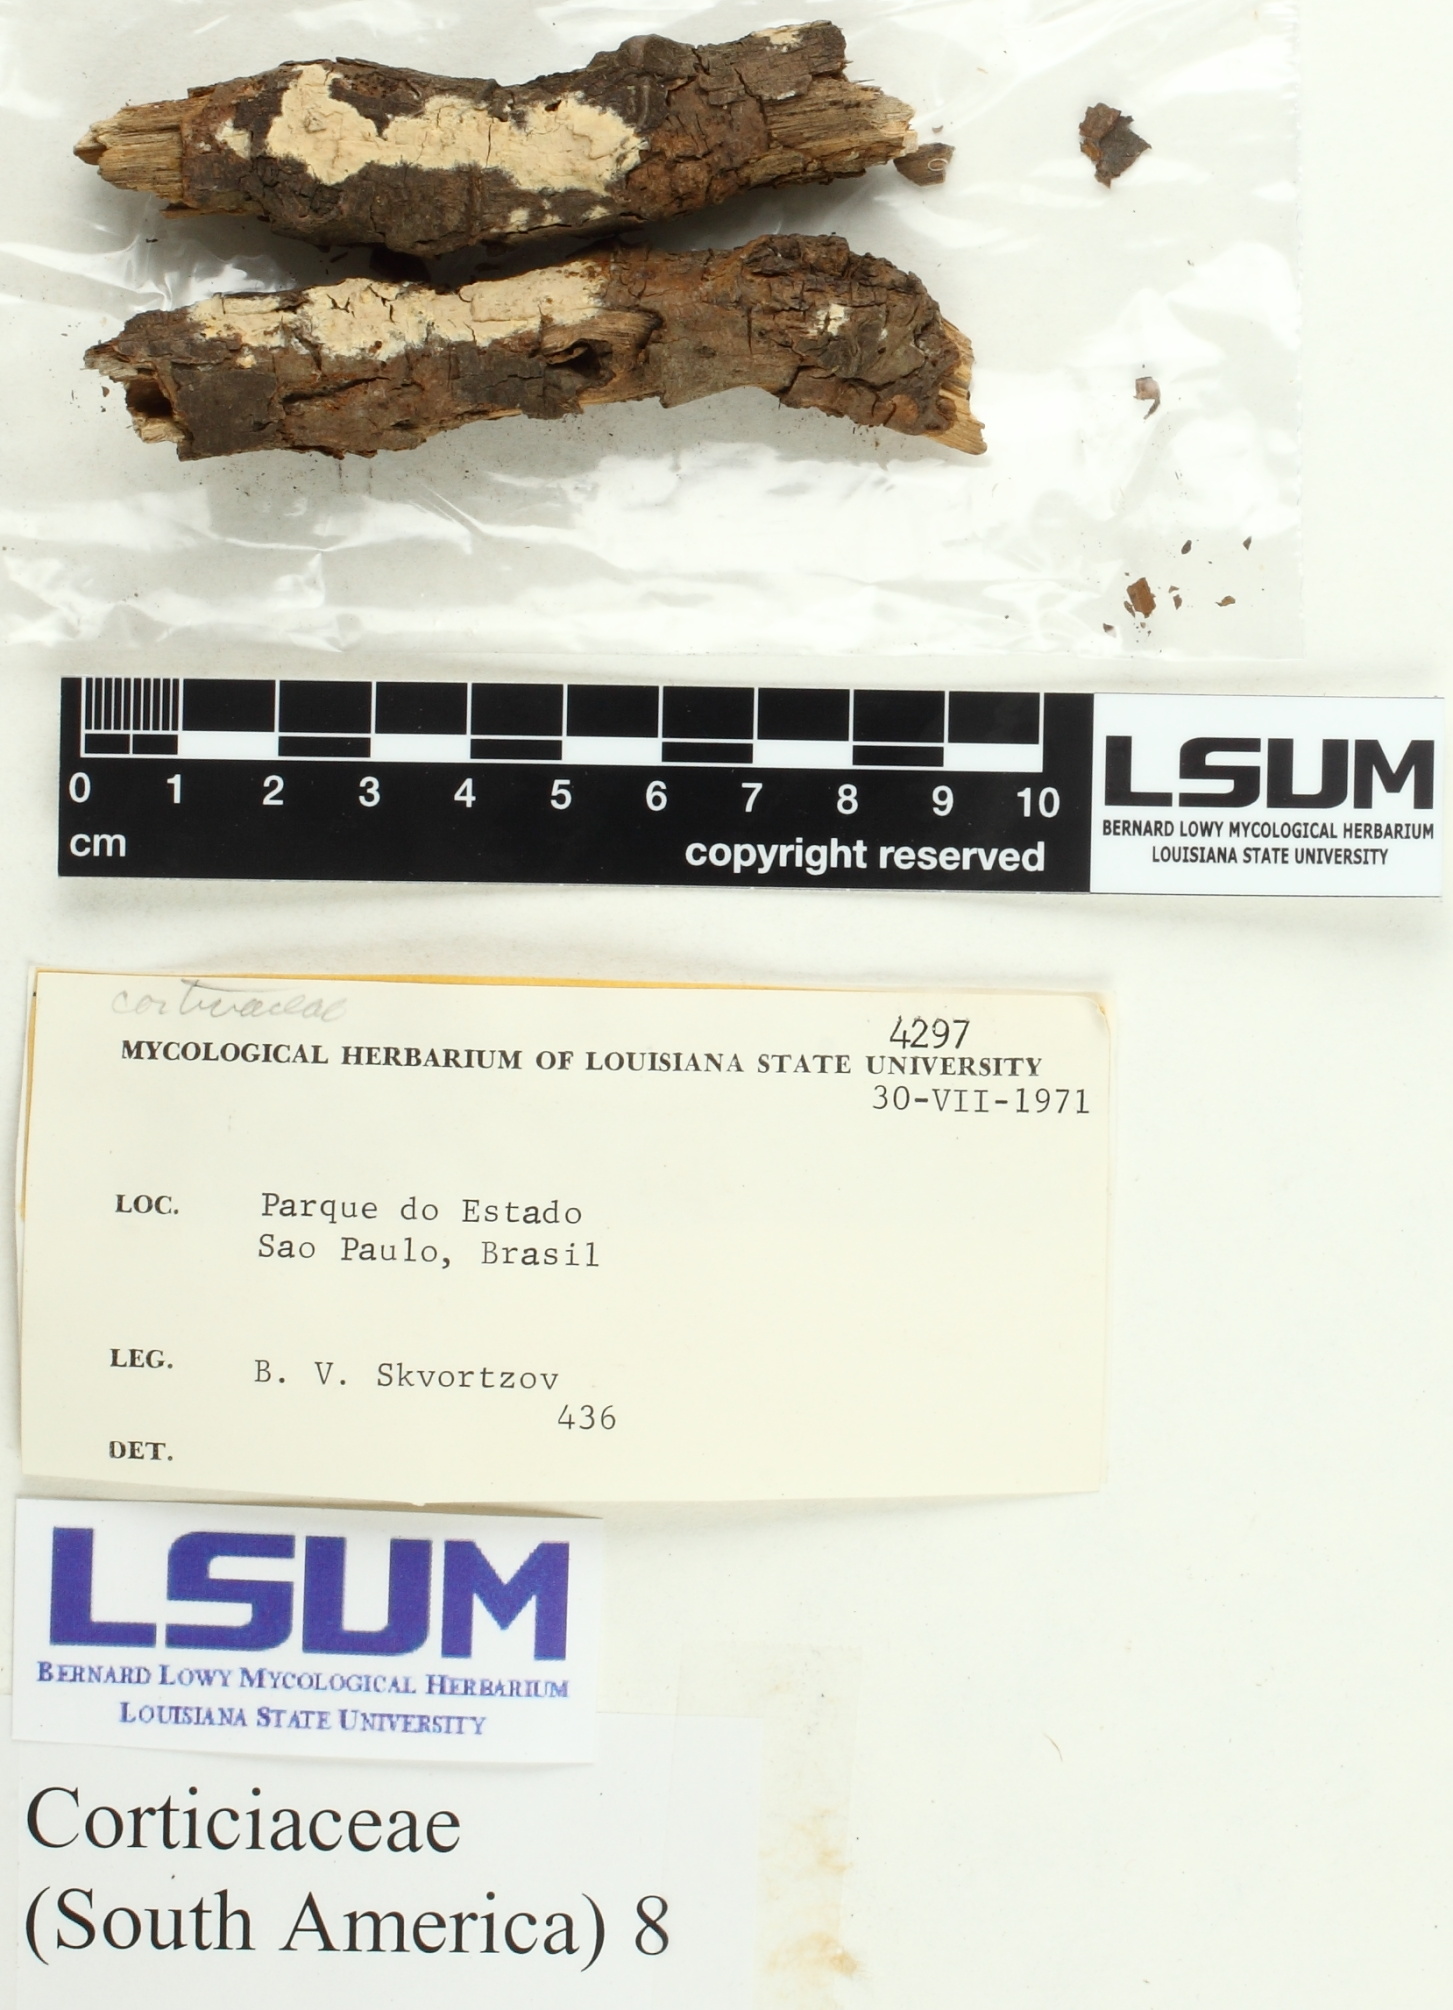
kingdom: Fungi
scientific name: Fungi
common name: Fungi
